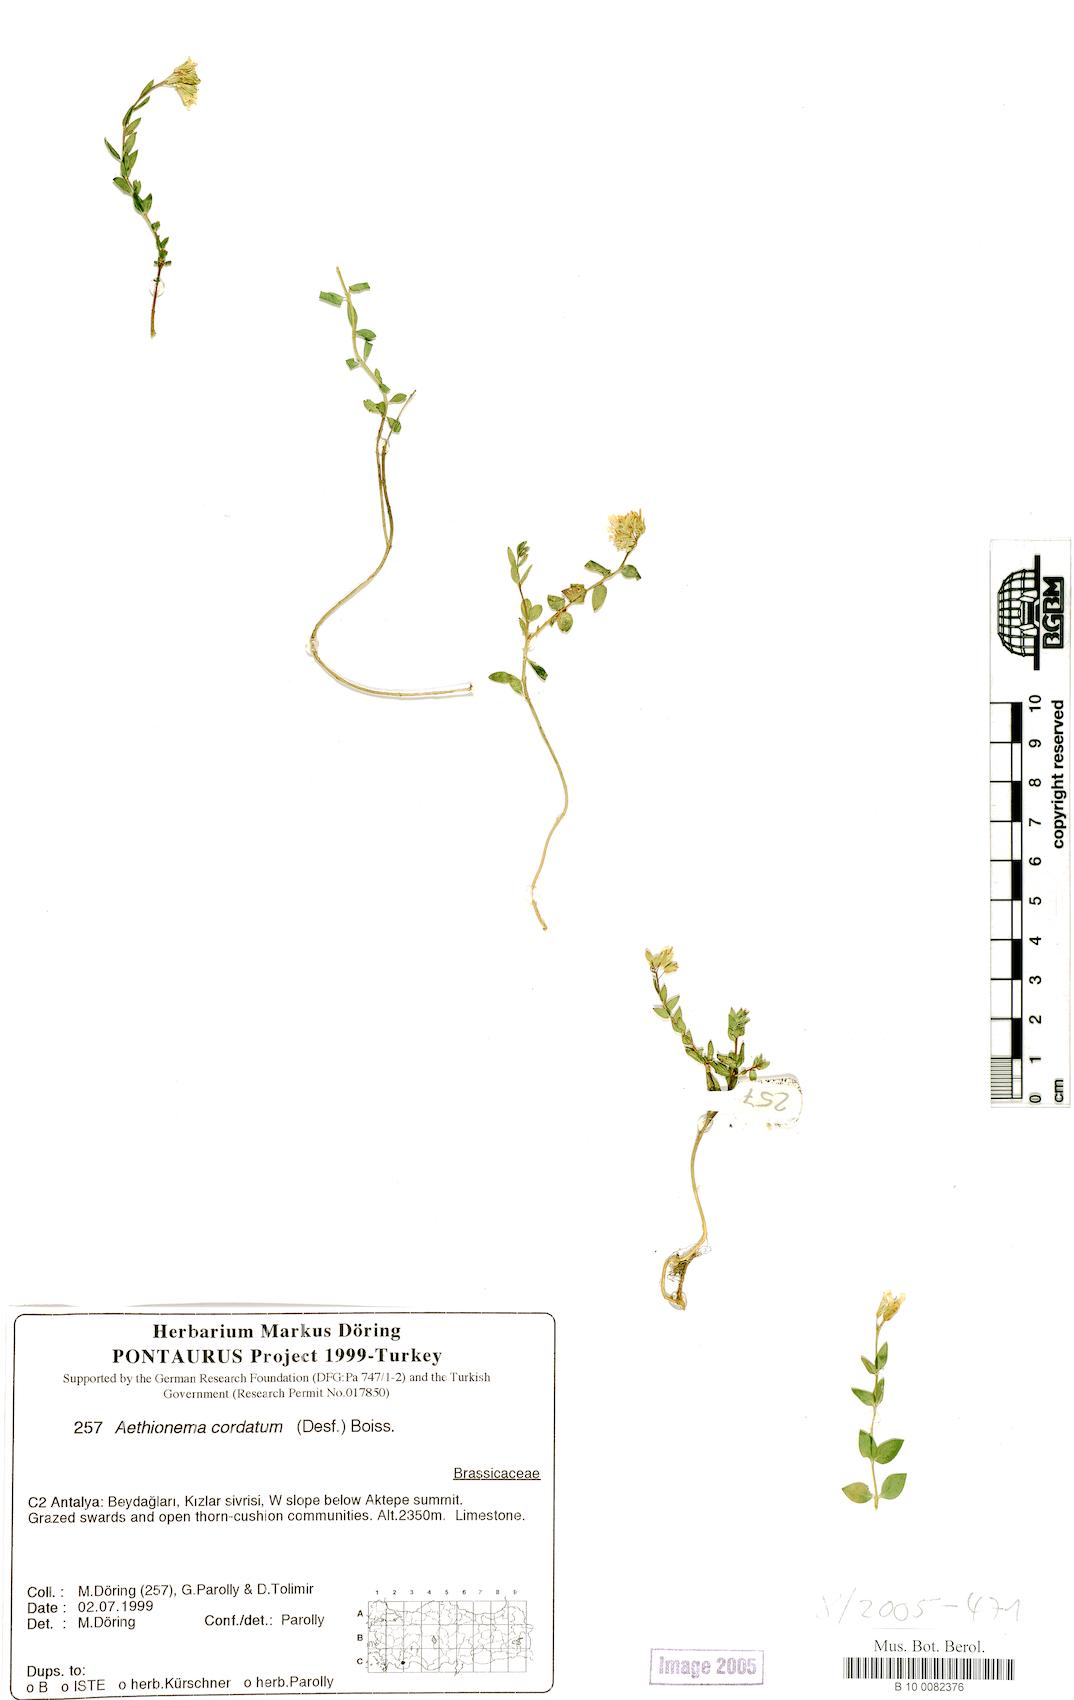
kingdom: Plantae
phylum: Tracheophyta
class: Magnoliopsida
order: Brassicales
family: Brassicaceae
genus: Aethionema
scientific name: Aethionema cordatum
